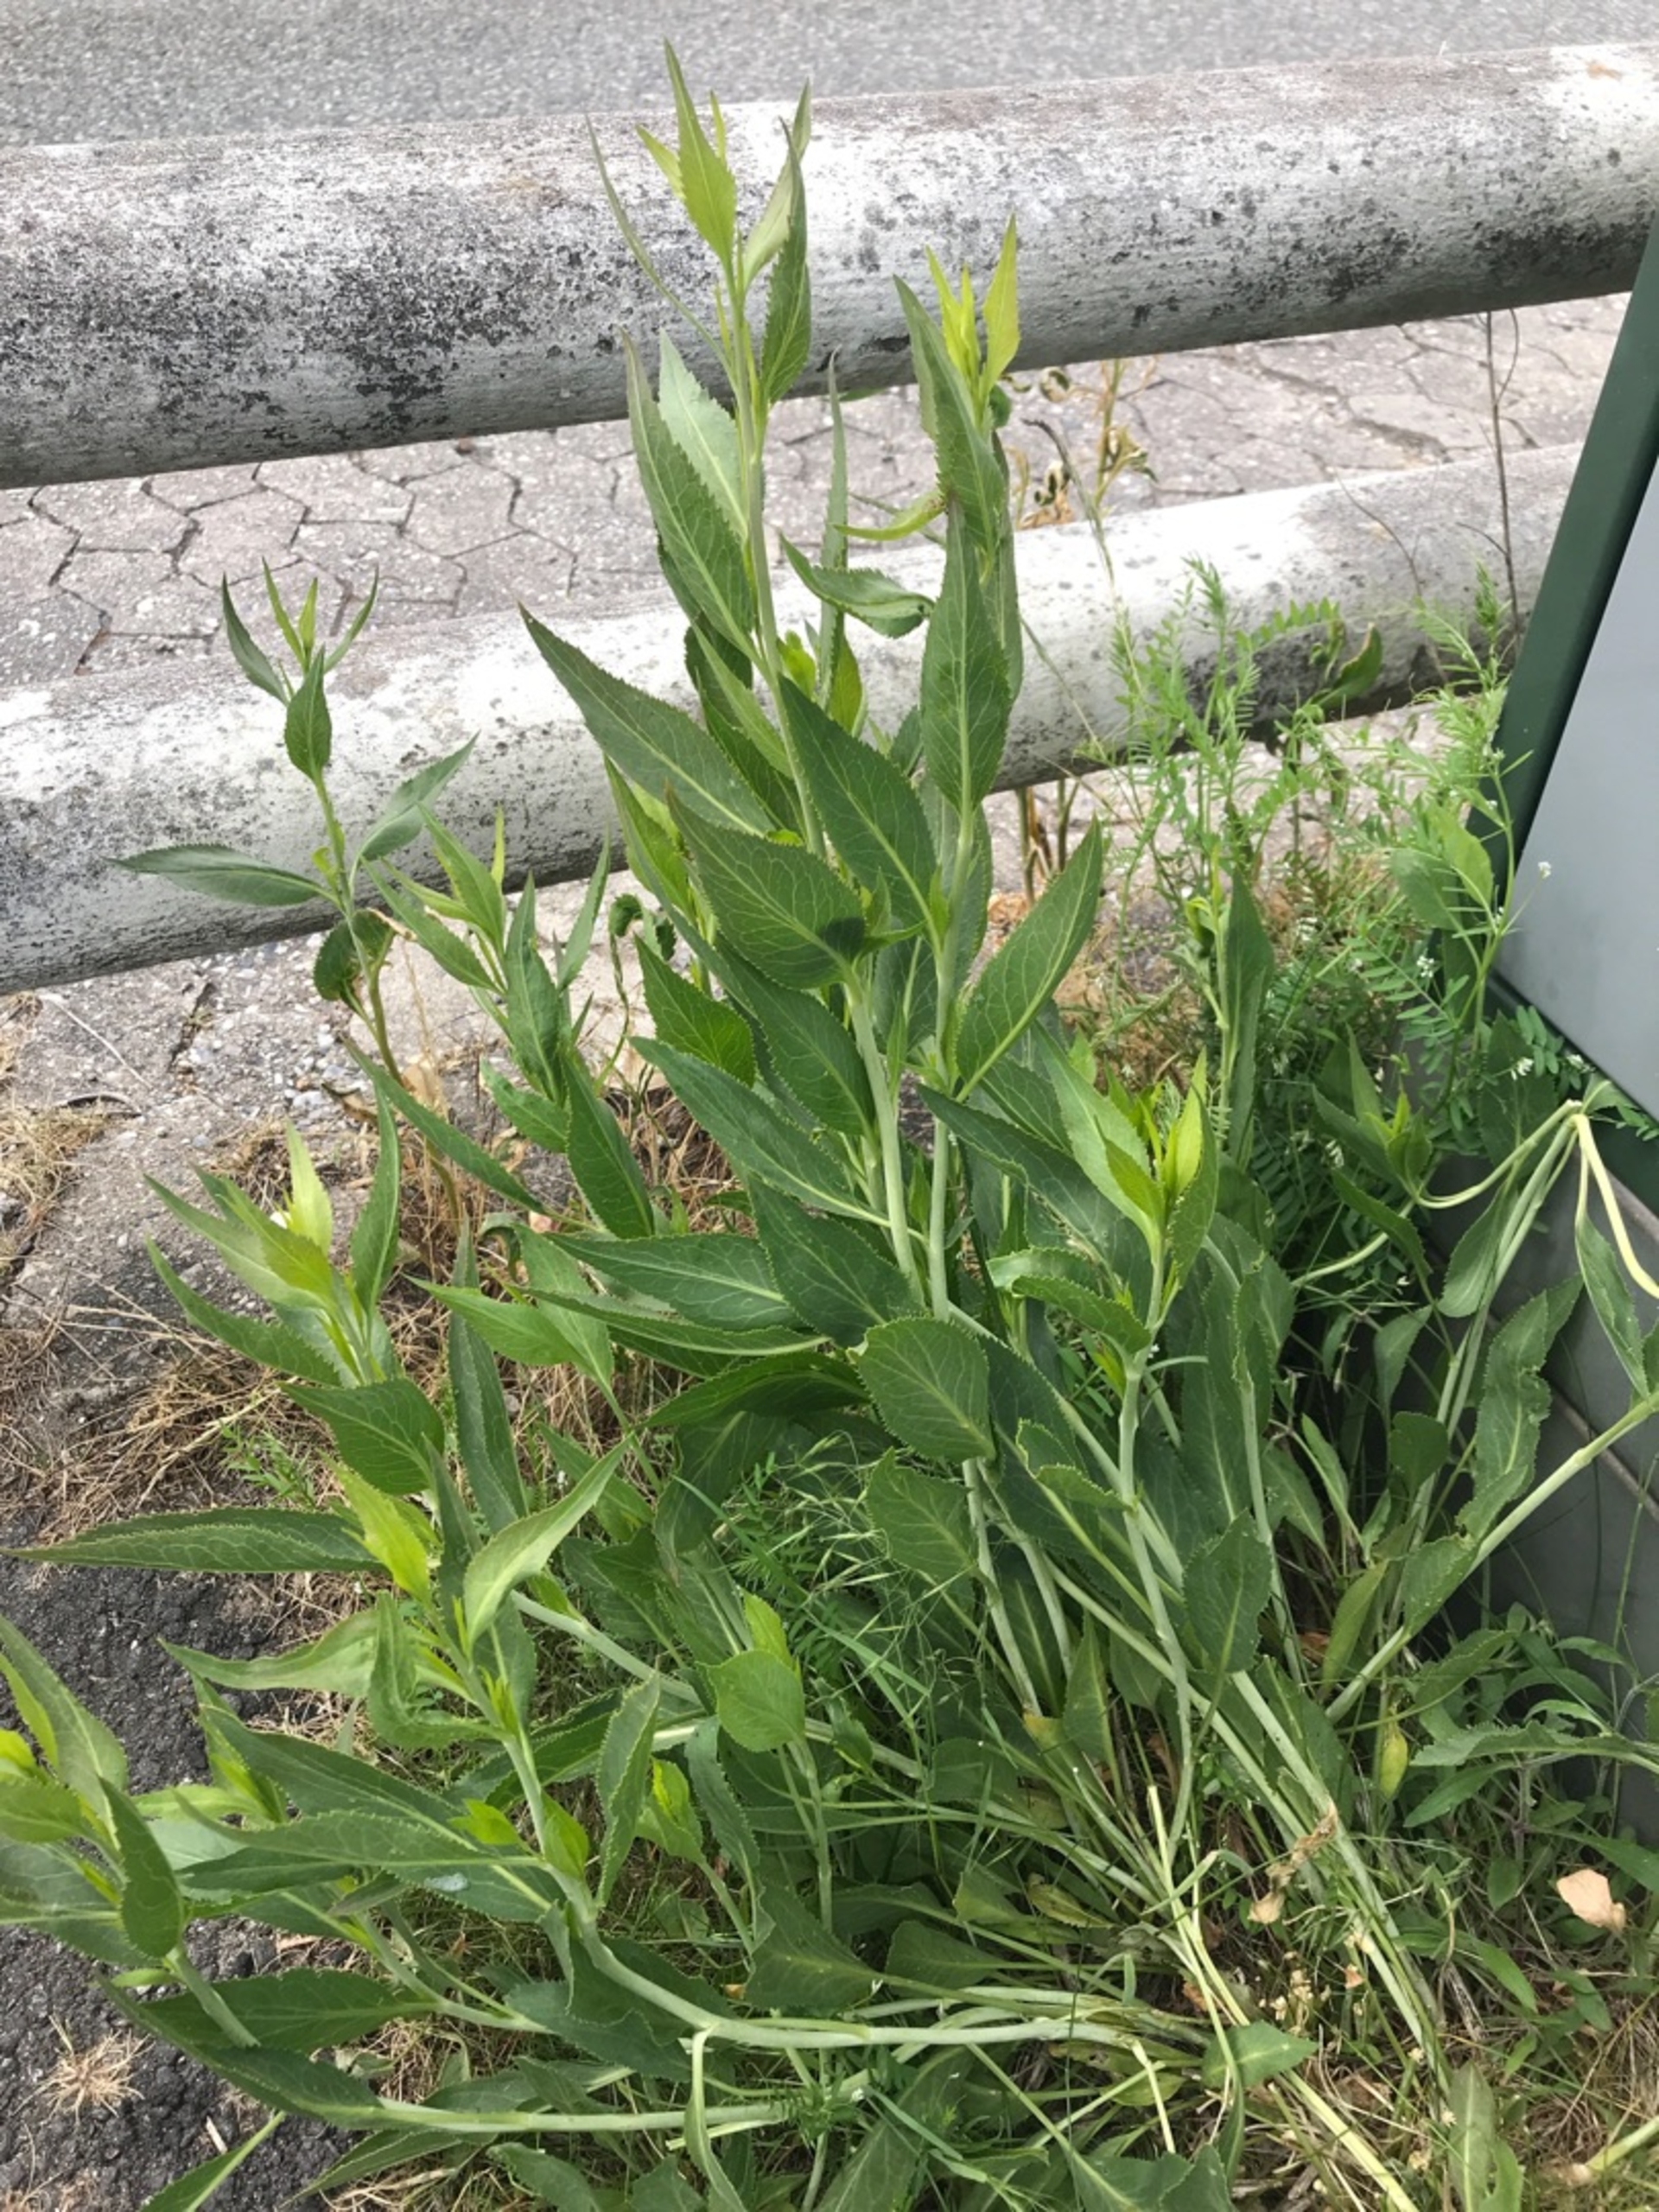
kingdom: Plantae
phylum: Tracheophyta
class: Magnoliopsida
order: Brassicales
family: Brassicaceae
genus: Lepidium
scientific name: Lepidium latifolium
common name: Strand-karse
